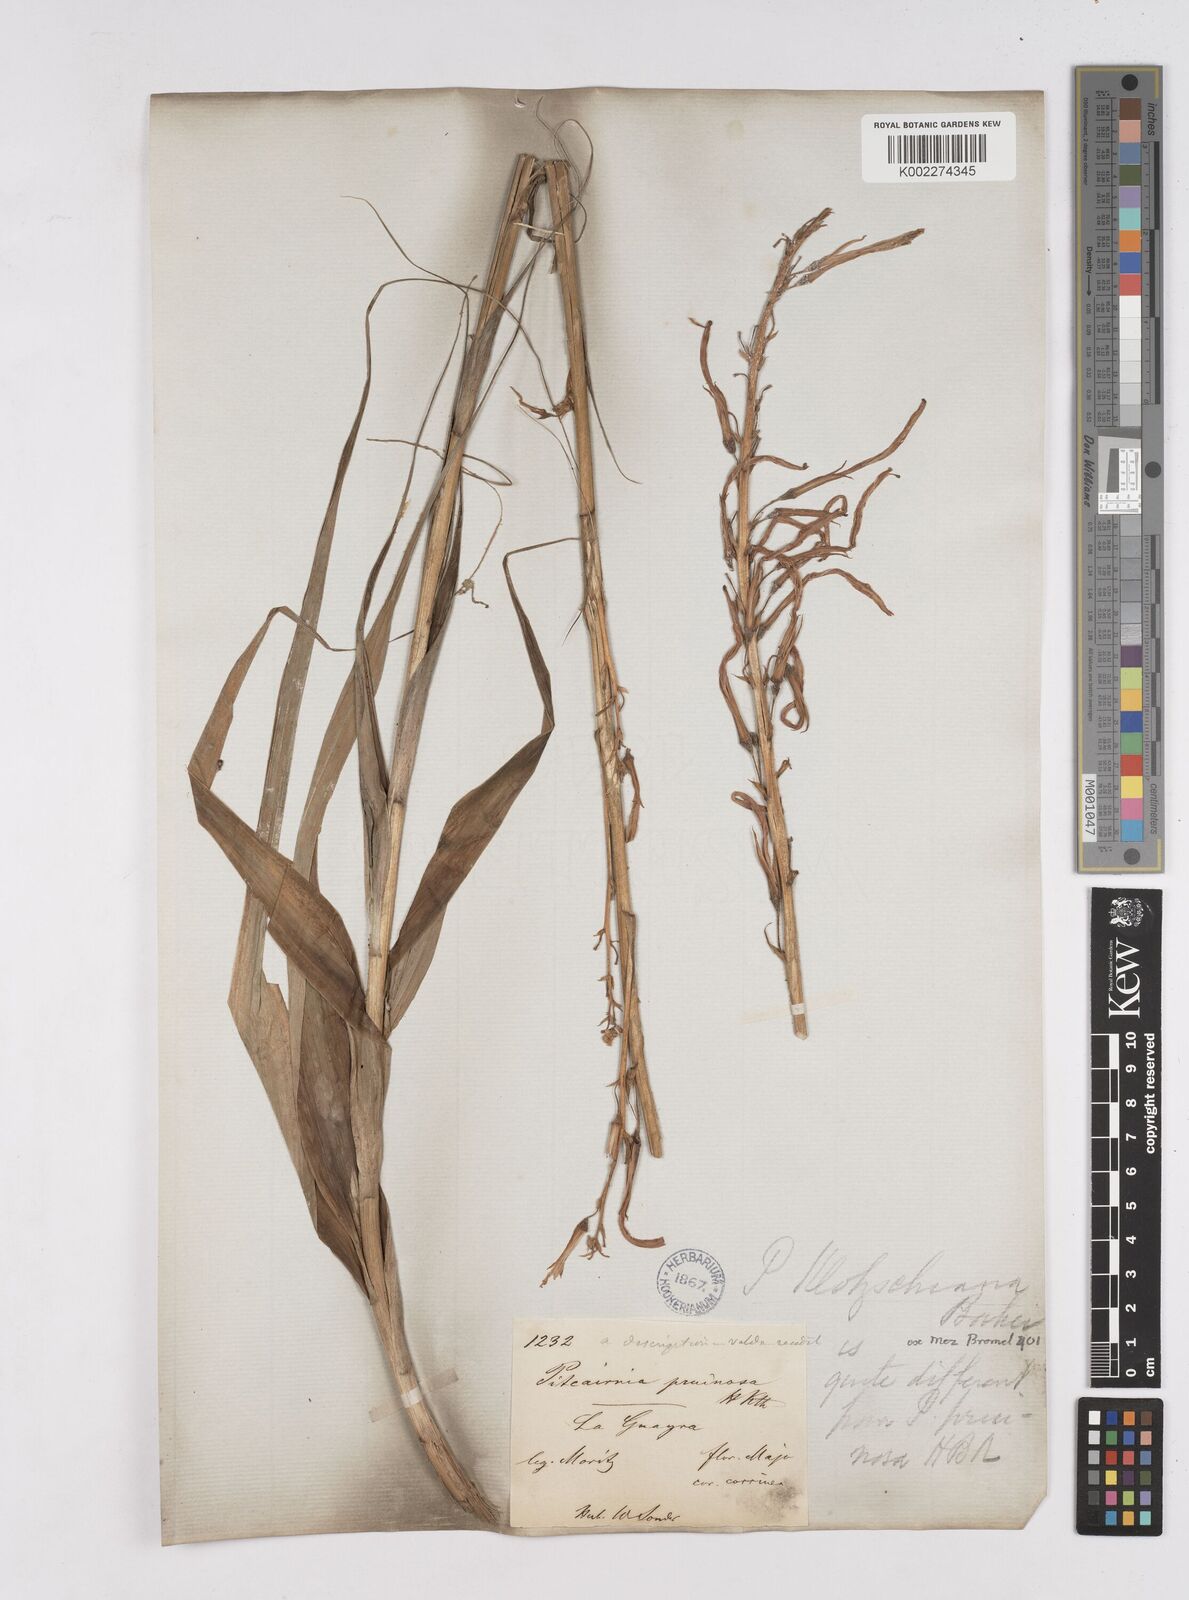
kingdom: Plantae
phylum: Tracheophyta
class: Liliopsida
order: Poales
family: Bromeliaceae
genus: Pitcairnia
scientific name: Pitcairnia moritziana
